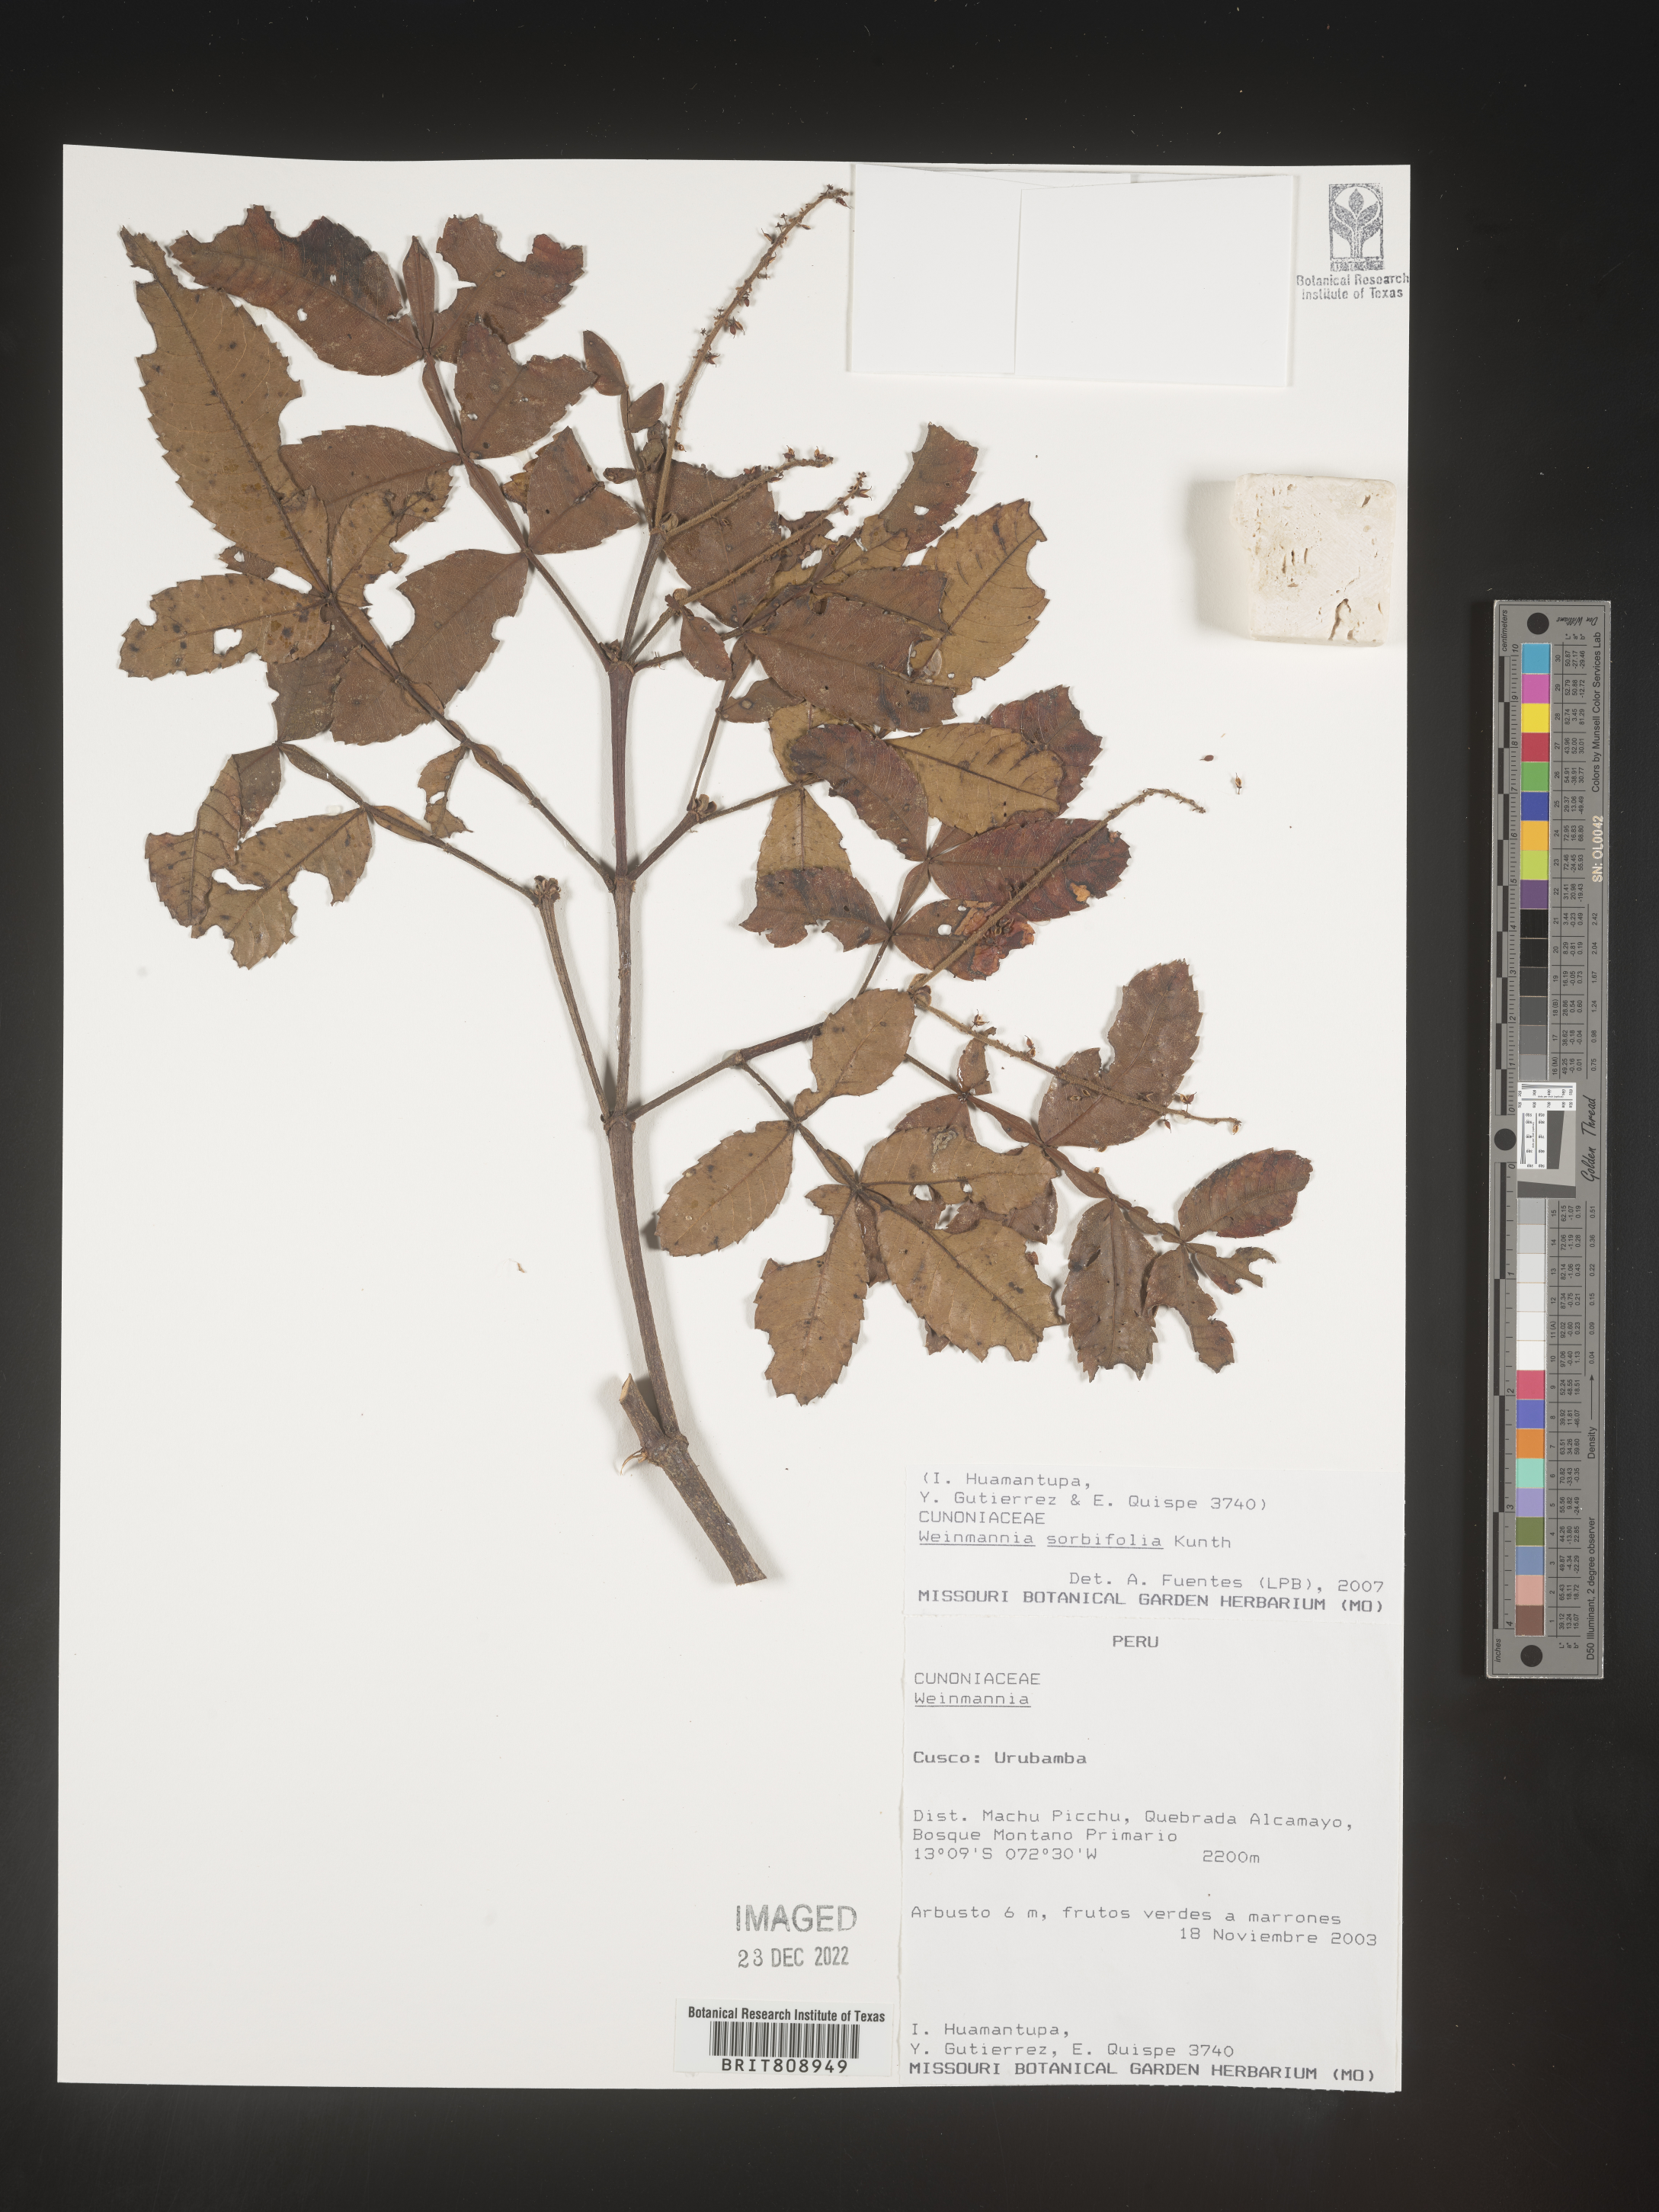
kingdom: Plantae
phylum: Tracheophyta
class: Magnoliopsida
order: Oxalidales
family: Cunoniaceae
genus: Weinmannia
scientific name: Weinmannia
